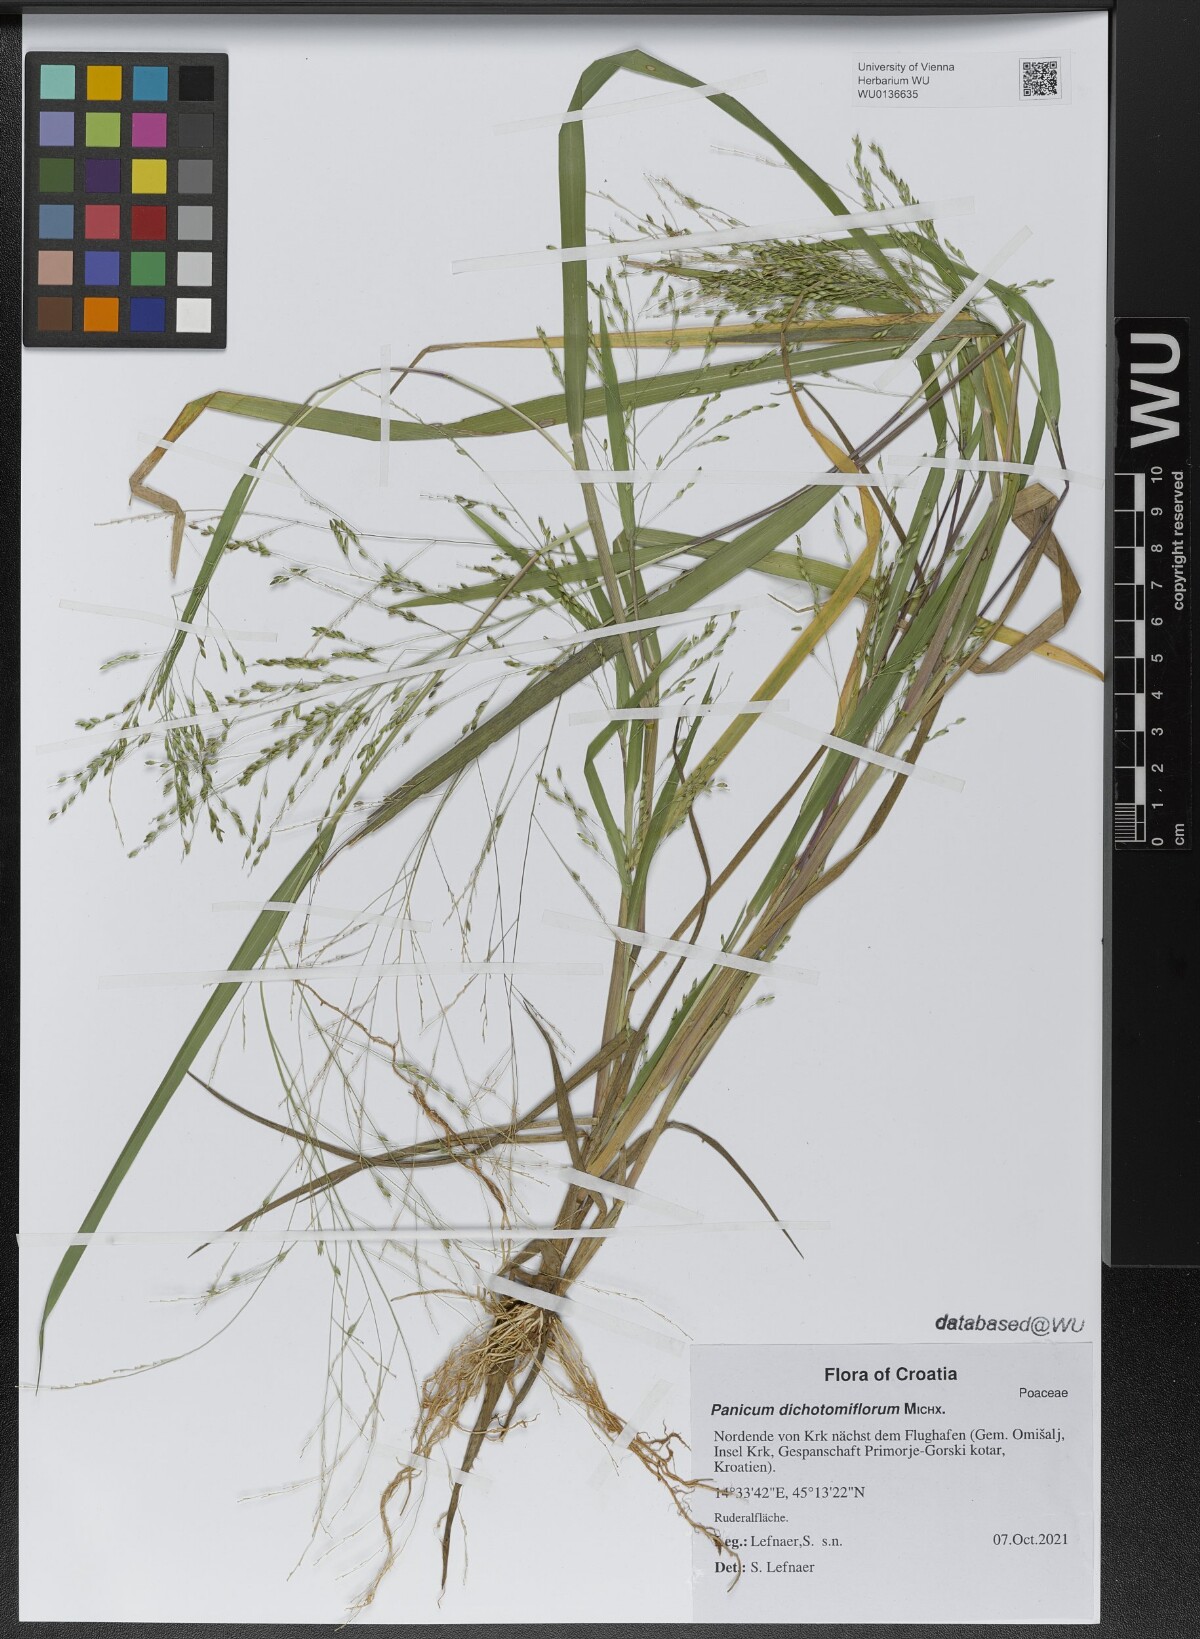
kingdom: Plantae
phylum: Tracheophyta
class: Liliopsida
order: Poales
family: Poaceae
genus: Panicum
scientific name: Panicum dichotomiflorum
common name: Autumn millet
